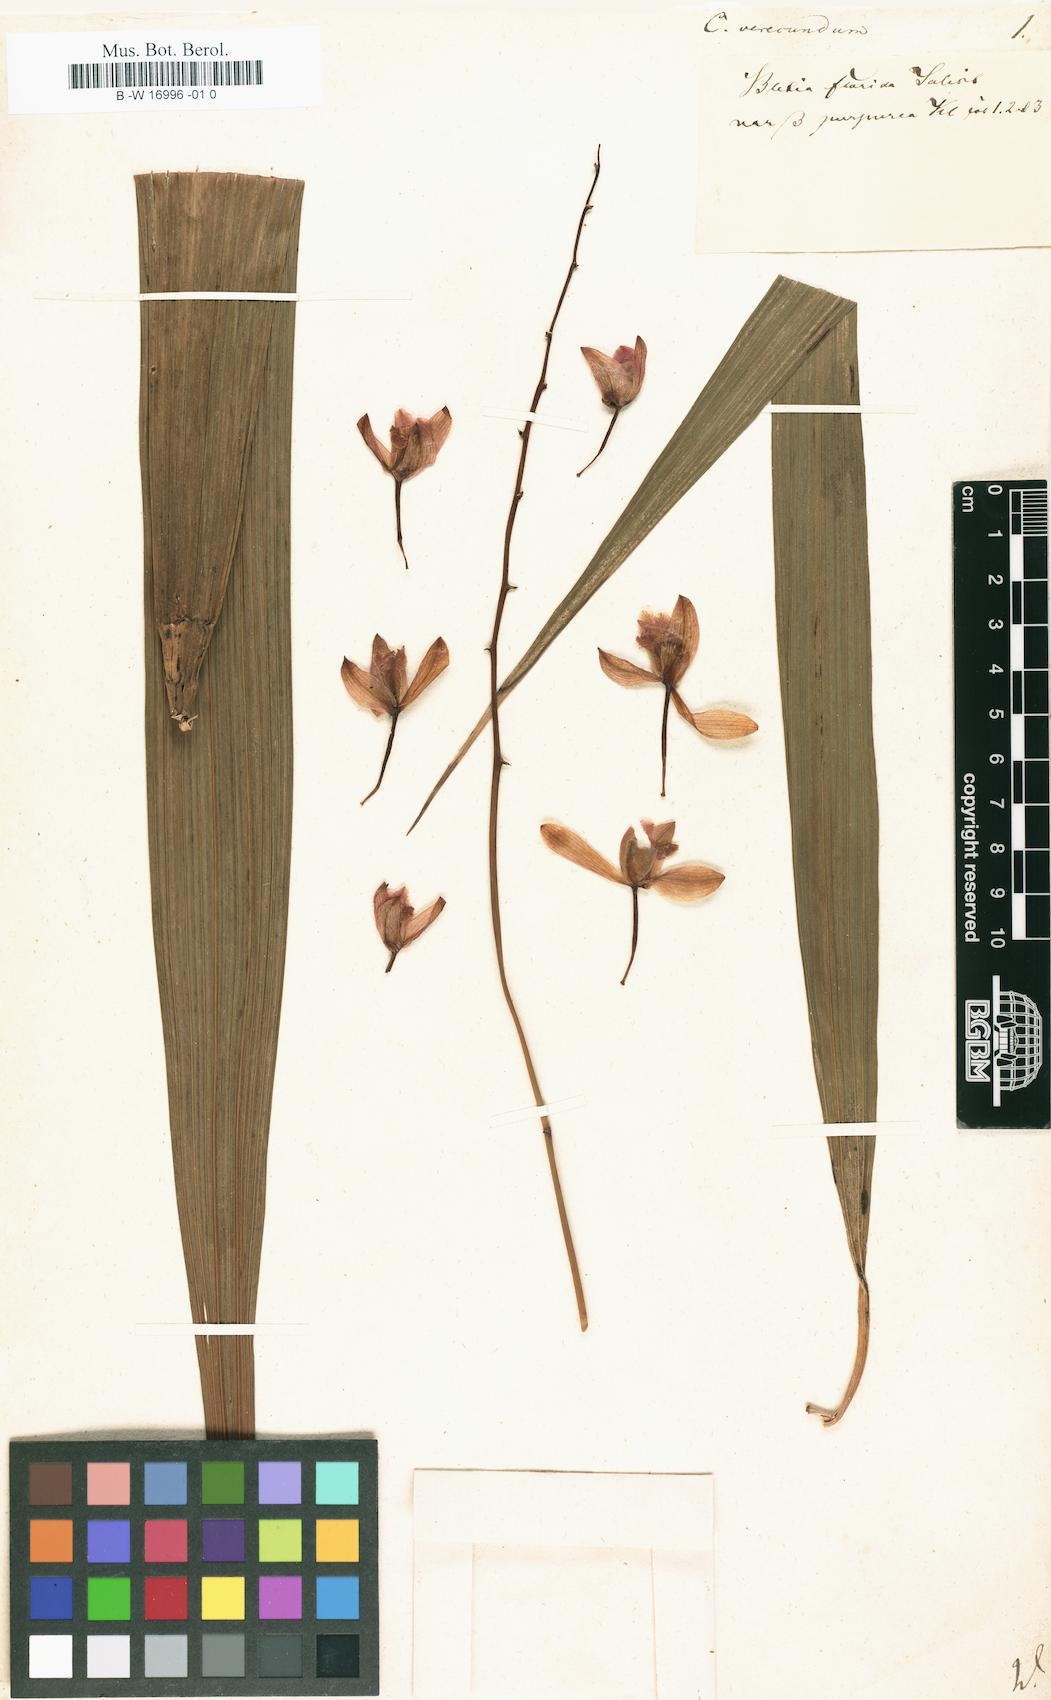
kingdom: Plantae
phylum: Tracheophyta
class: Liliopsida
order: Asparagales
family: Orchidaceae
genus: Bletia
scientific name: Bletia purpurea
